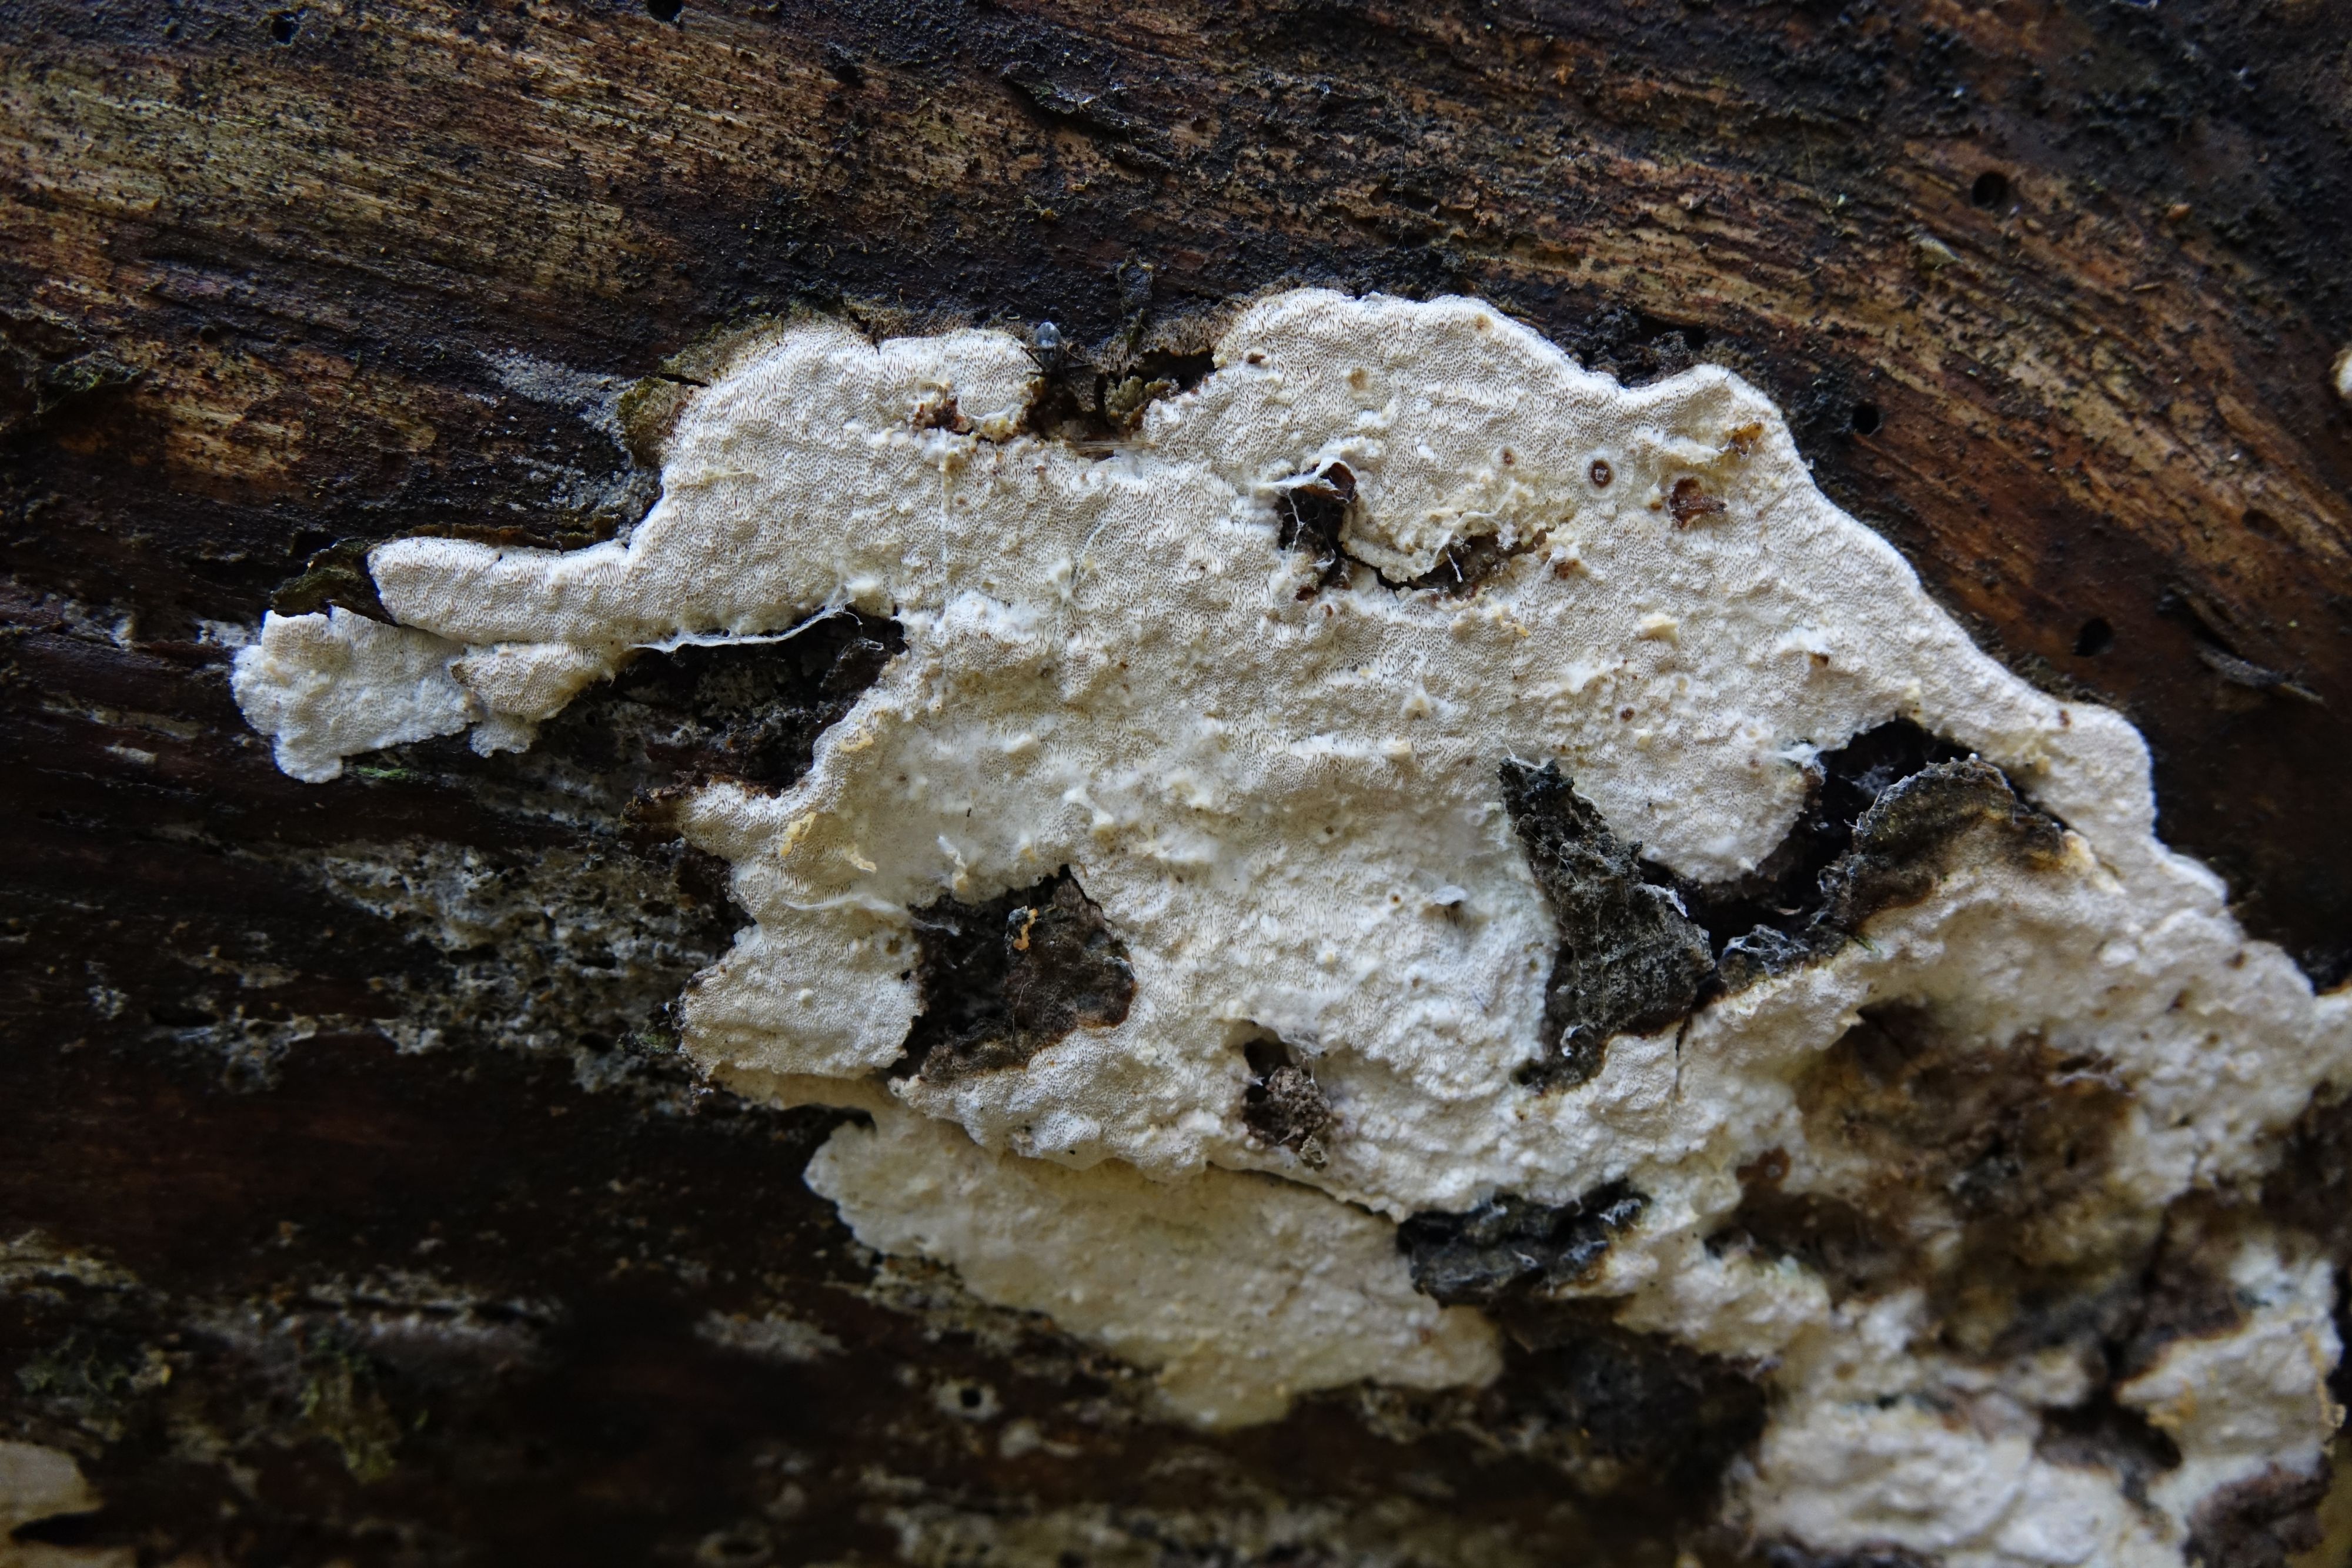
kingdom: Fungi
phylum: Basidiomycota
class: Agaricomycetes
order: Polyporales
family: Incrustoporiaceae
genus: Incrustoporia
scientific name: Incrustoporia biguttulata
